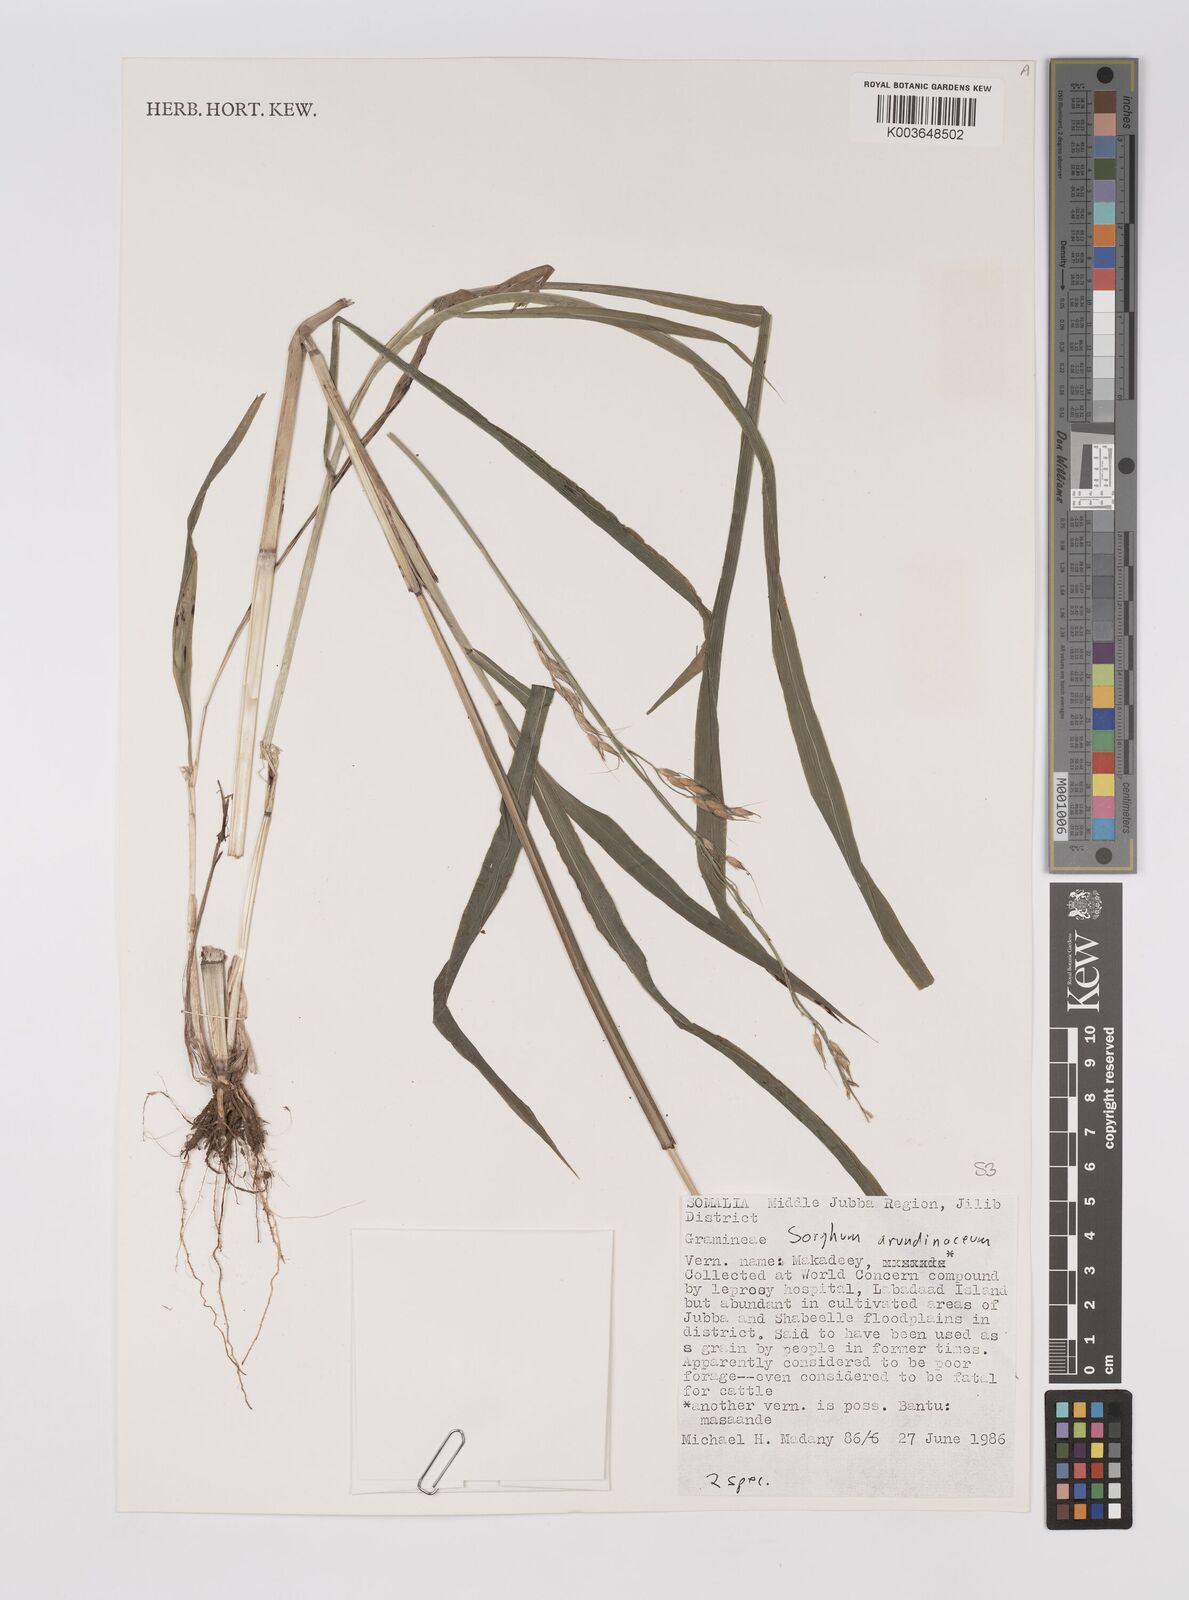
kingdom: Plantae
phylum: Tracheophyta
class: Liliopsida
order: Poales
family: Poaceae
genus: Sorghum
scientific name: Sorghum arundinaceum
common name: Sorghum
